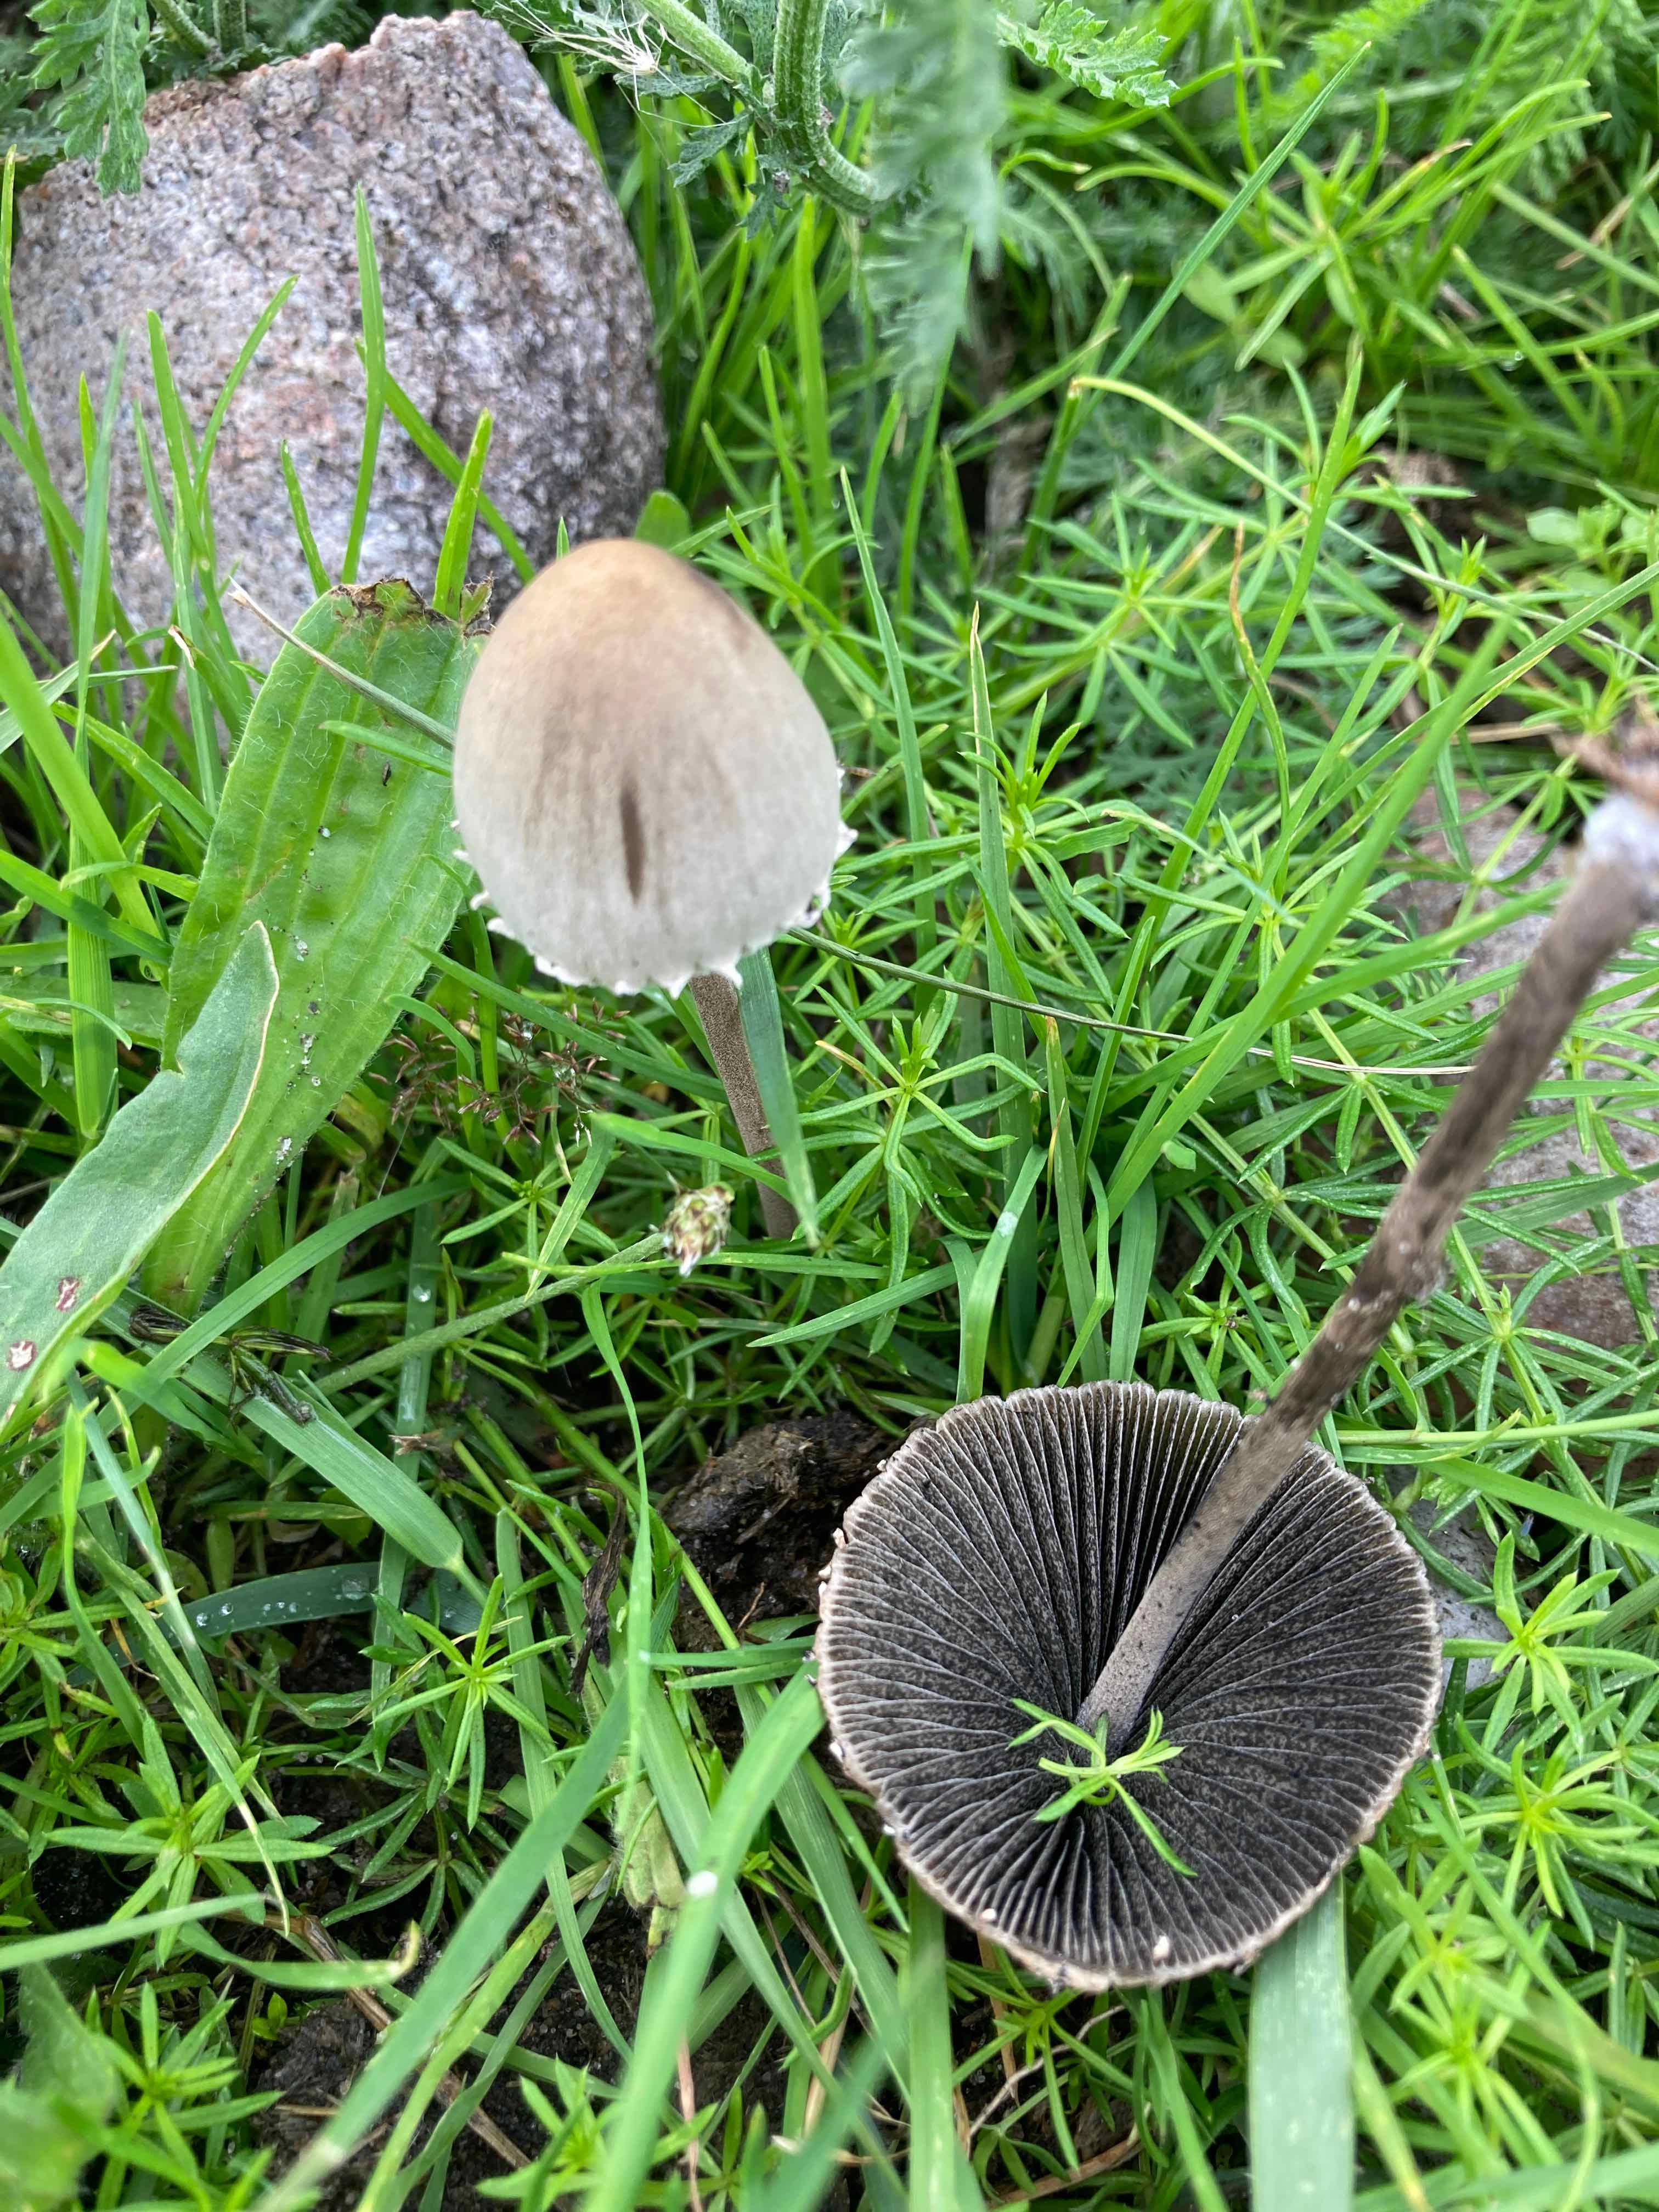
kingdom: Fungi
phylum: Basidiomycota
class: Agaricomycetes
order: Agaricales
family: Bolbitiaceae
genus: Panaeolus
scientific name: Panaeolus papilionaceus
